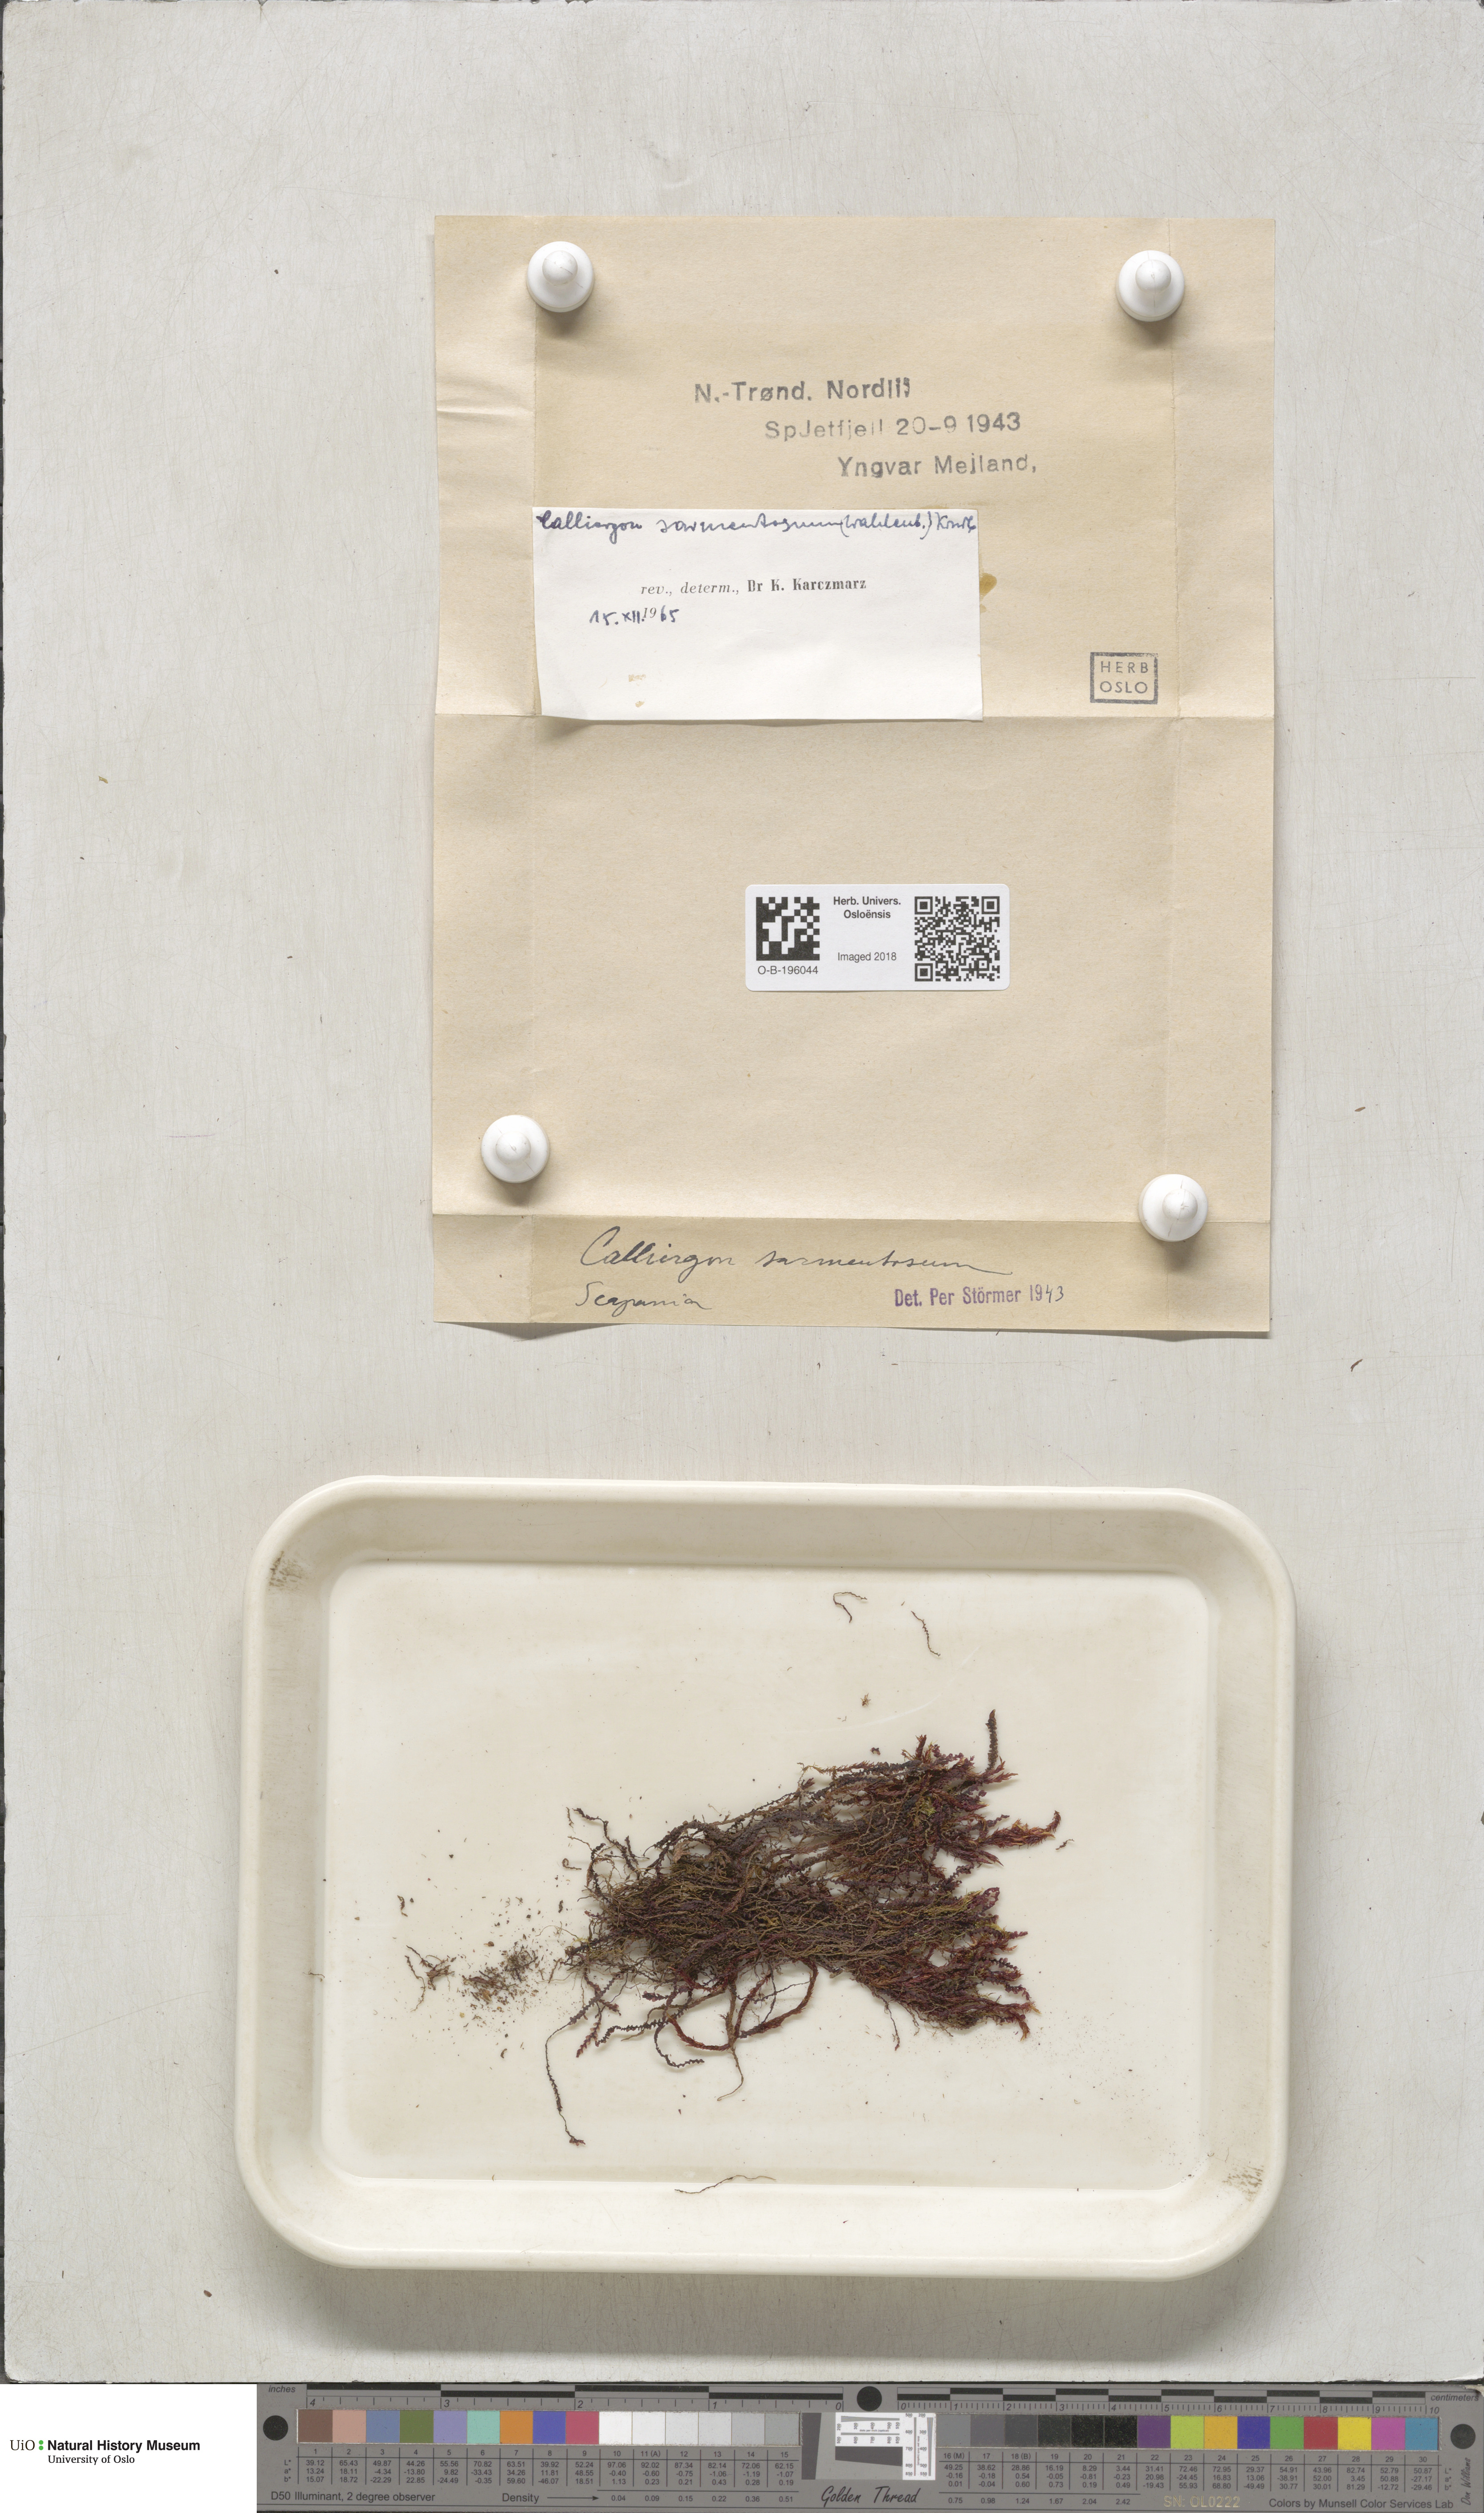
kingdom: Plantae
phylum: Bryophyta
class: Bryopsida
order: Hypnales
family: Calliergonaceae
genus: Sarmentypnum
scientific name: Sarmentypnum sarmentosum
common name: Twiggy spoon moss
